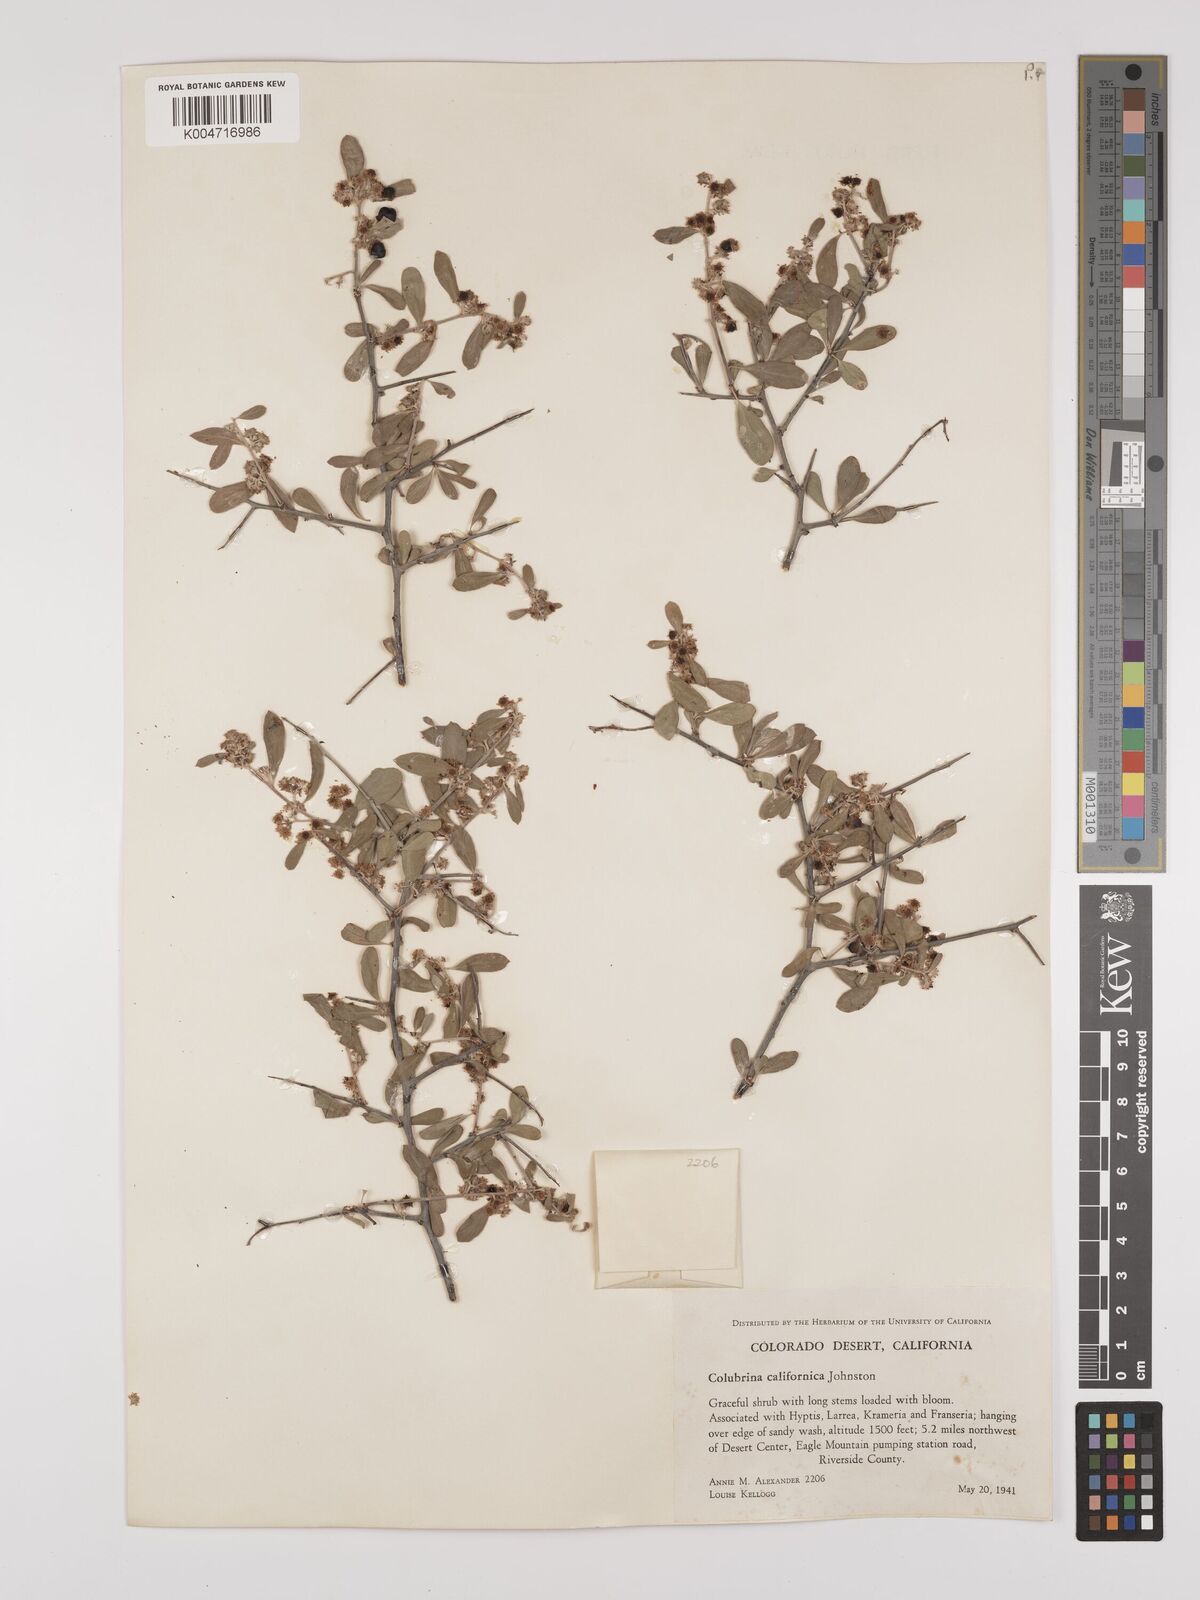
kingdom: Plantae
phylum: Tracheophyta
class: Magnoliopsida
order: Rosales
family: Rhamnaceae
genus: Colubrina
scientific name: Colubrina californica
